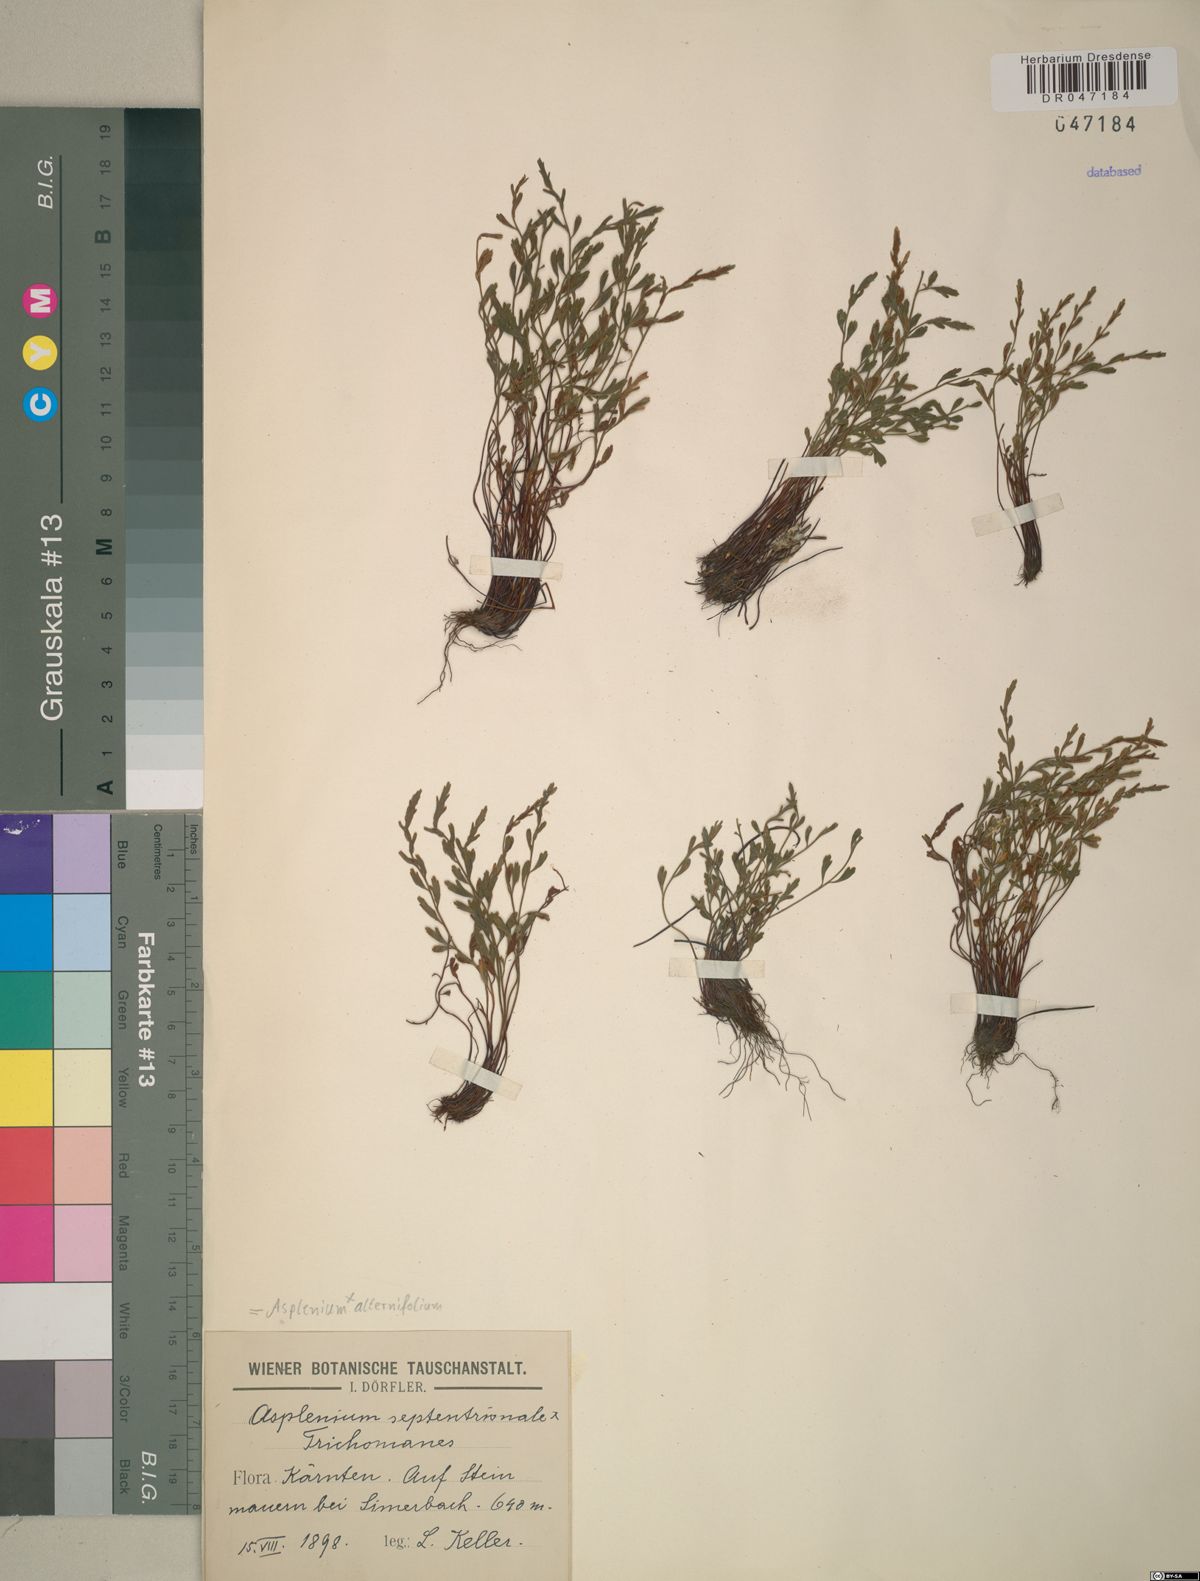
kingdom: Plantae
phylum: Tracheophyta
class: Polypodiopsida
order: Polypodiales
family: Aspleniaceae
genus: Asplenium
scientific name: Asplenium alternifolium
